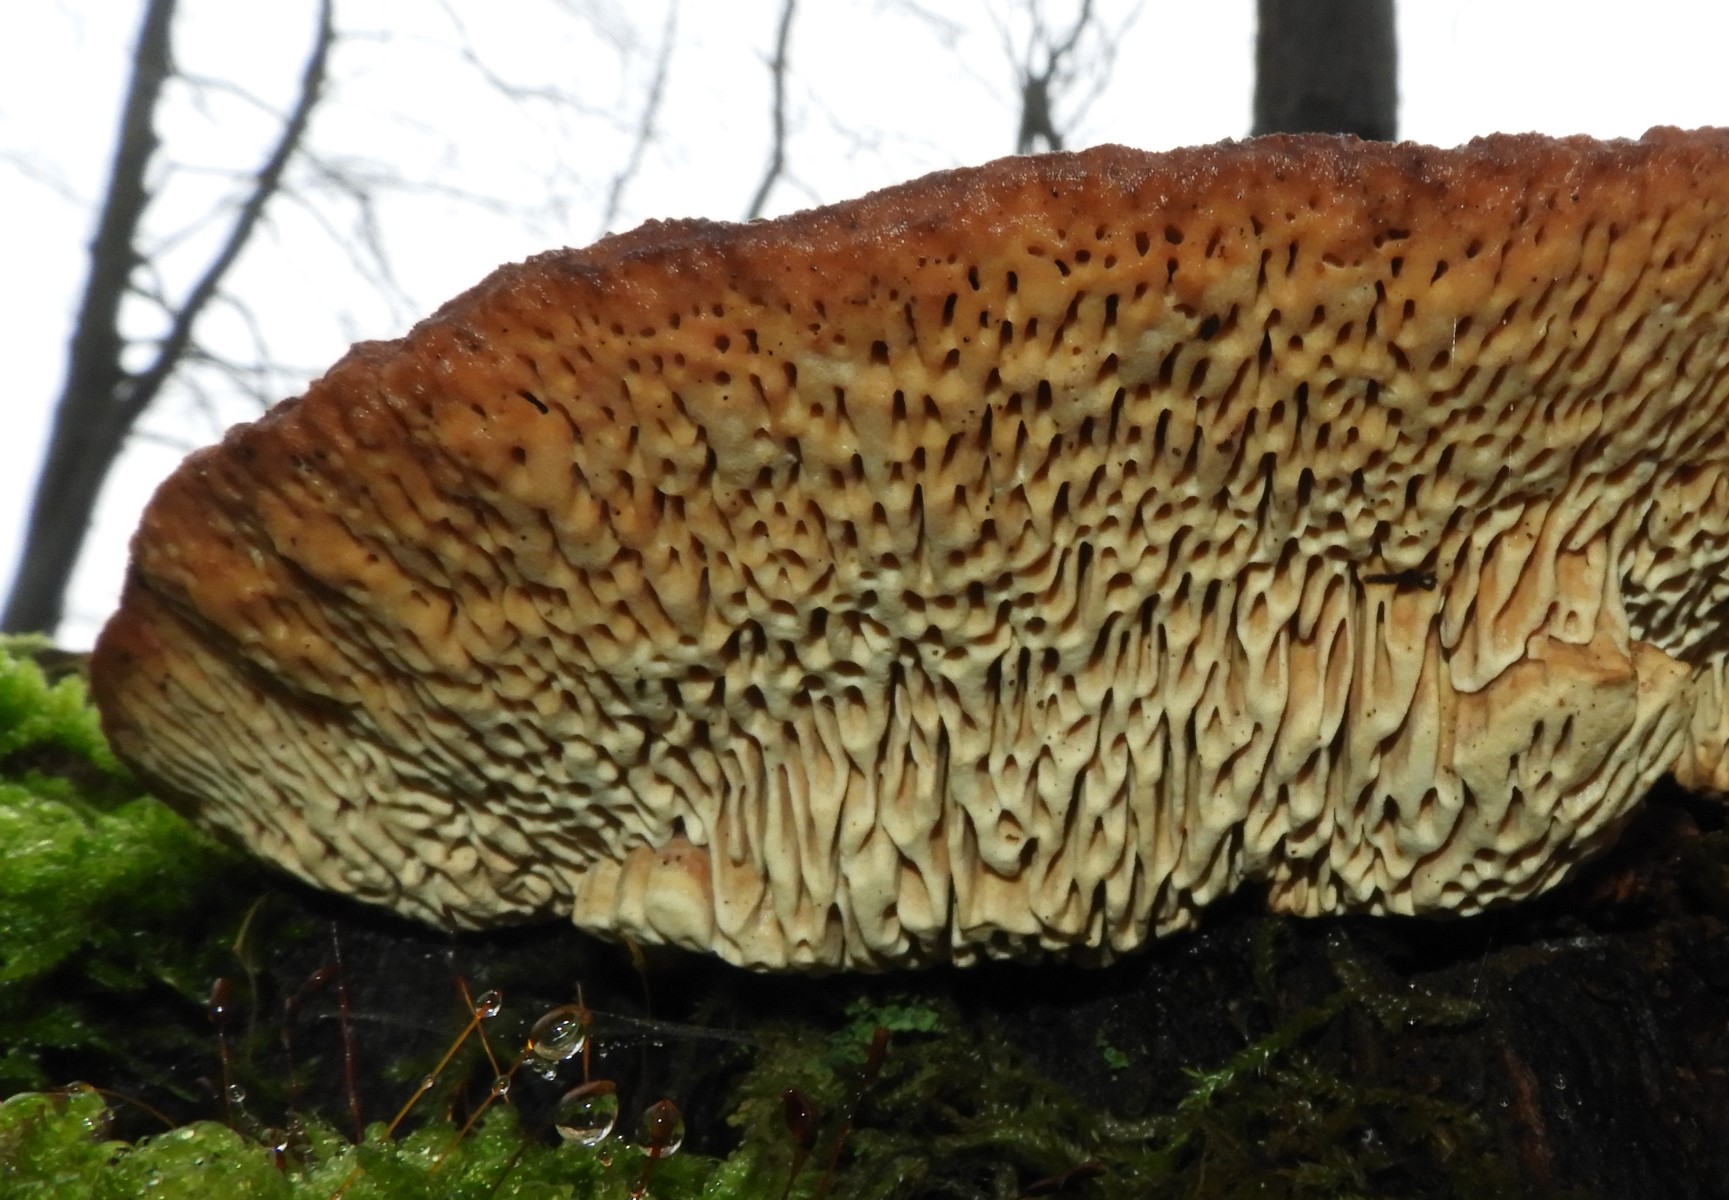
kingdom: Fungi
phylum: Basidiomycota
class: Agaricomycetes
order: Polyporales
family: Fomitopsidaceae
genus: Daedalea
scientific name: Daedalea quercina
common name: ege-labyrintsvamp
